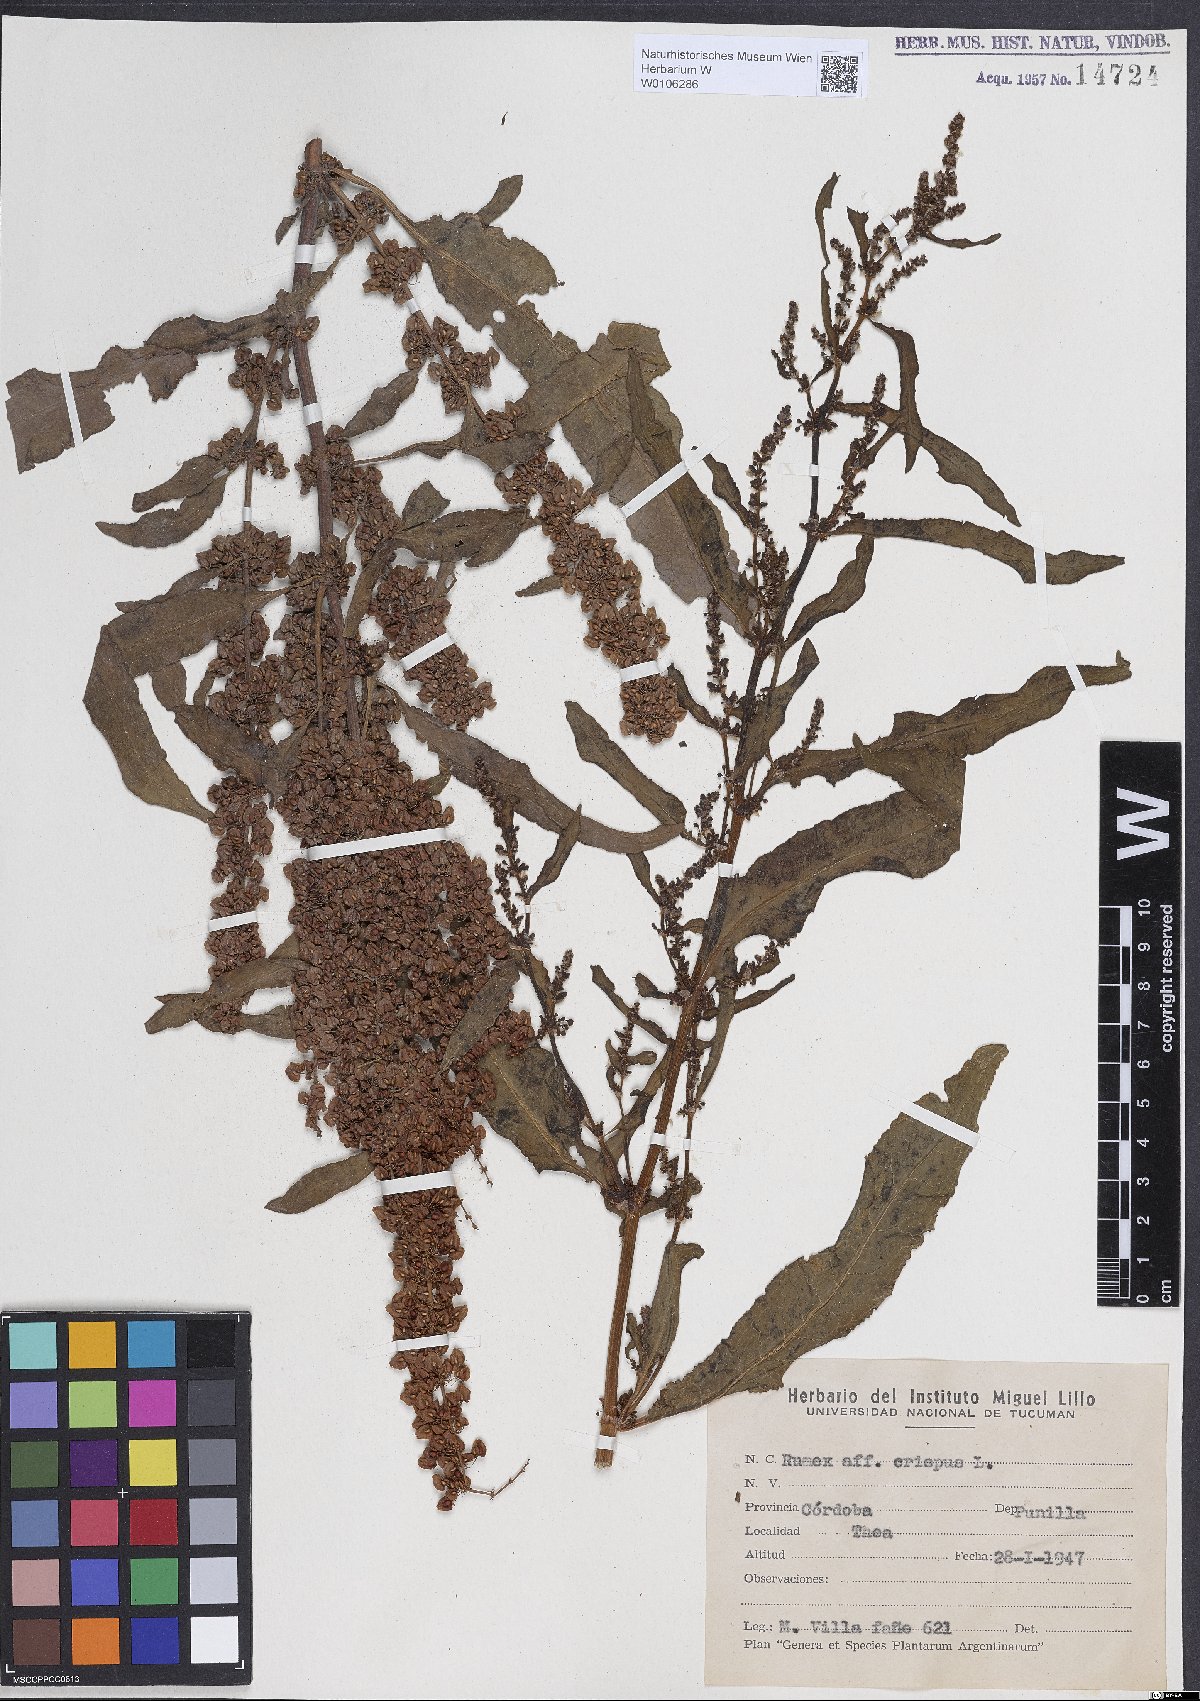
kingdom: Plantae
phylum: Tracheophyta
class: Magnoliopsida
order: Caryophyllales
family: Polygonaceae
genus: Rumex
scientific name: Rumex crispus
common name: Curled dock
